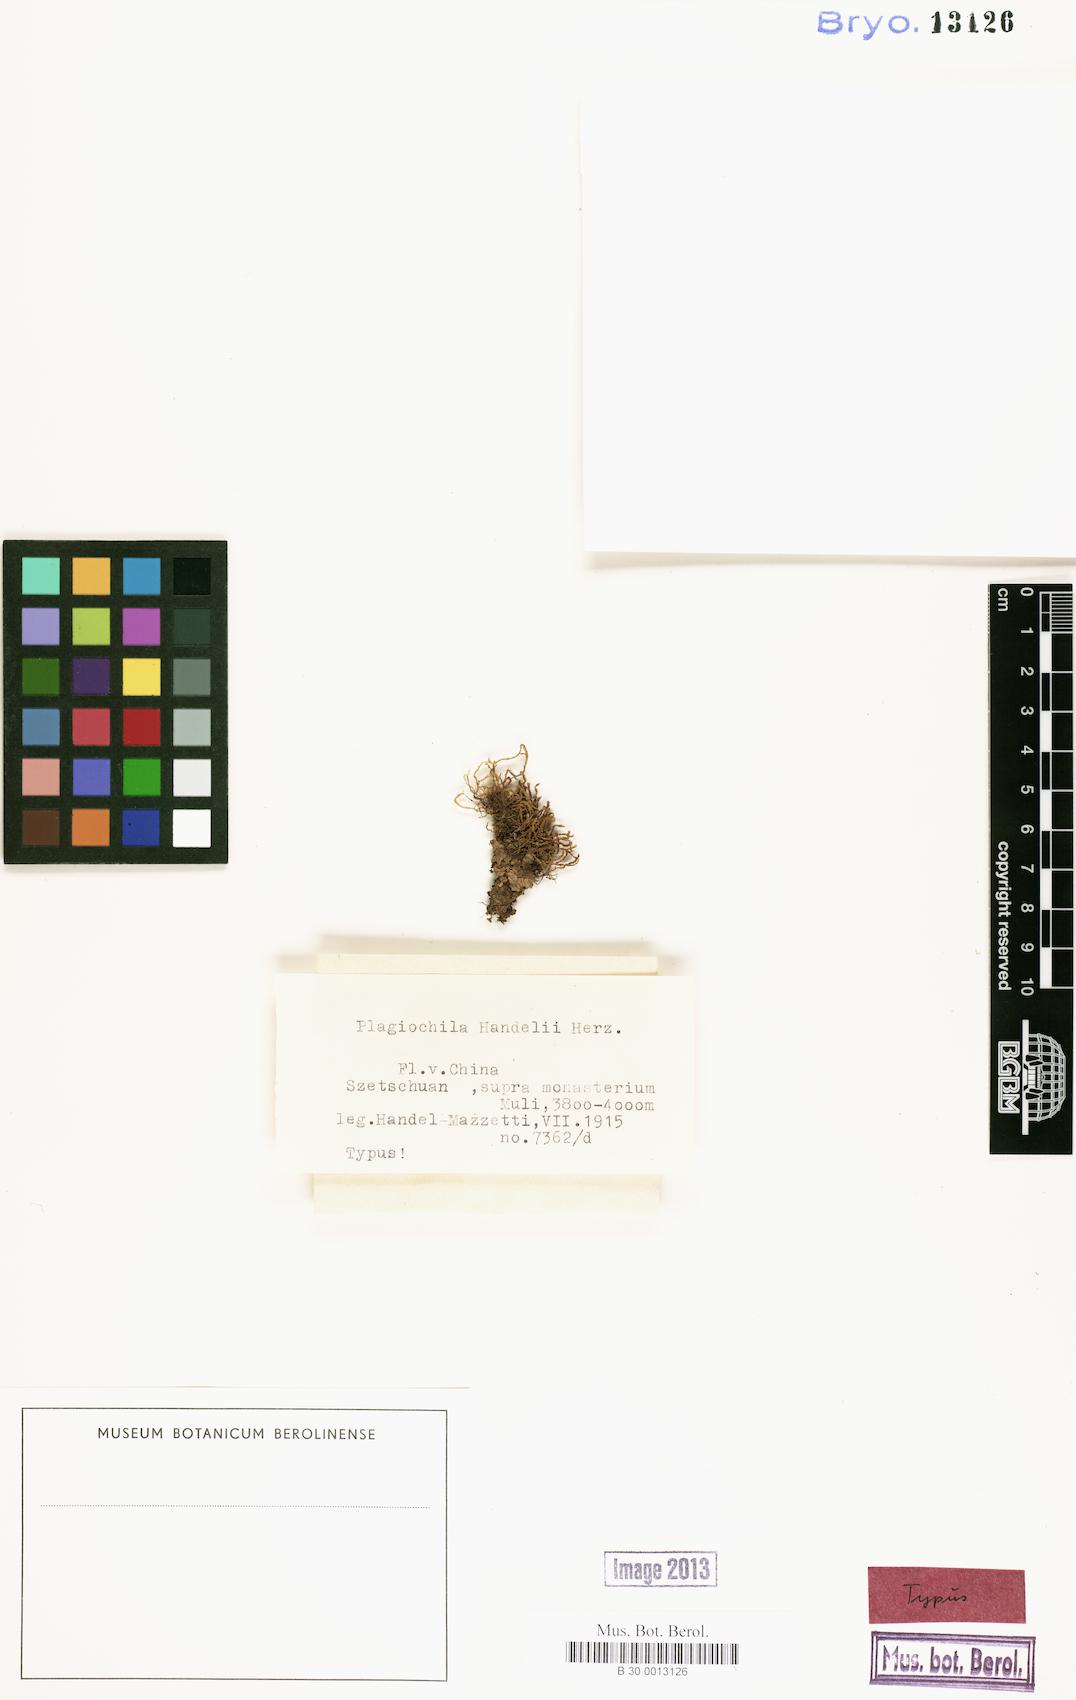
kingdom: Plantae
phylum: Marchantiophyta
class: Jungermanniopsida
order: Jungermanniales
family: Plagiochilaceae
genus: Plagiochila
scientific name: Plagiochila zonata
